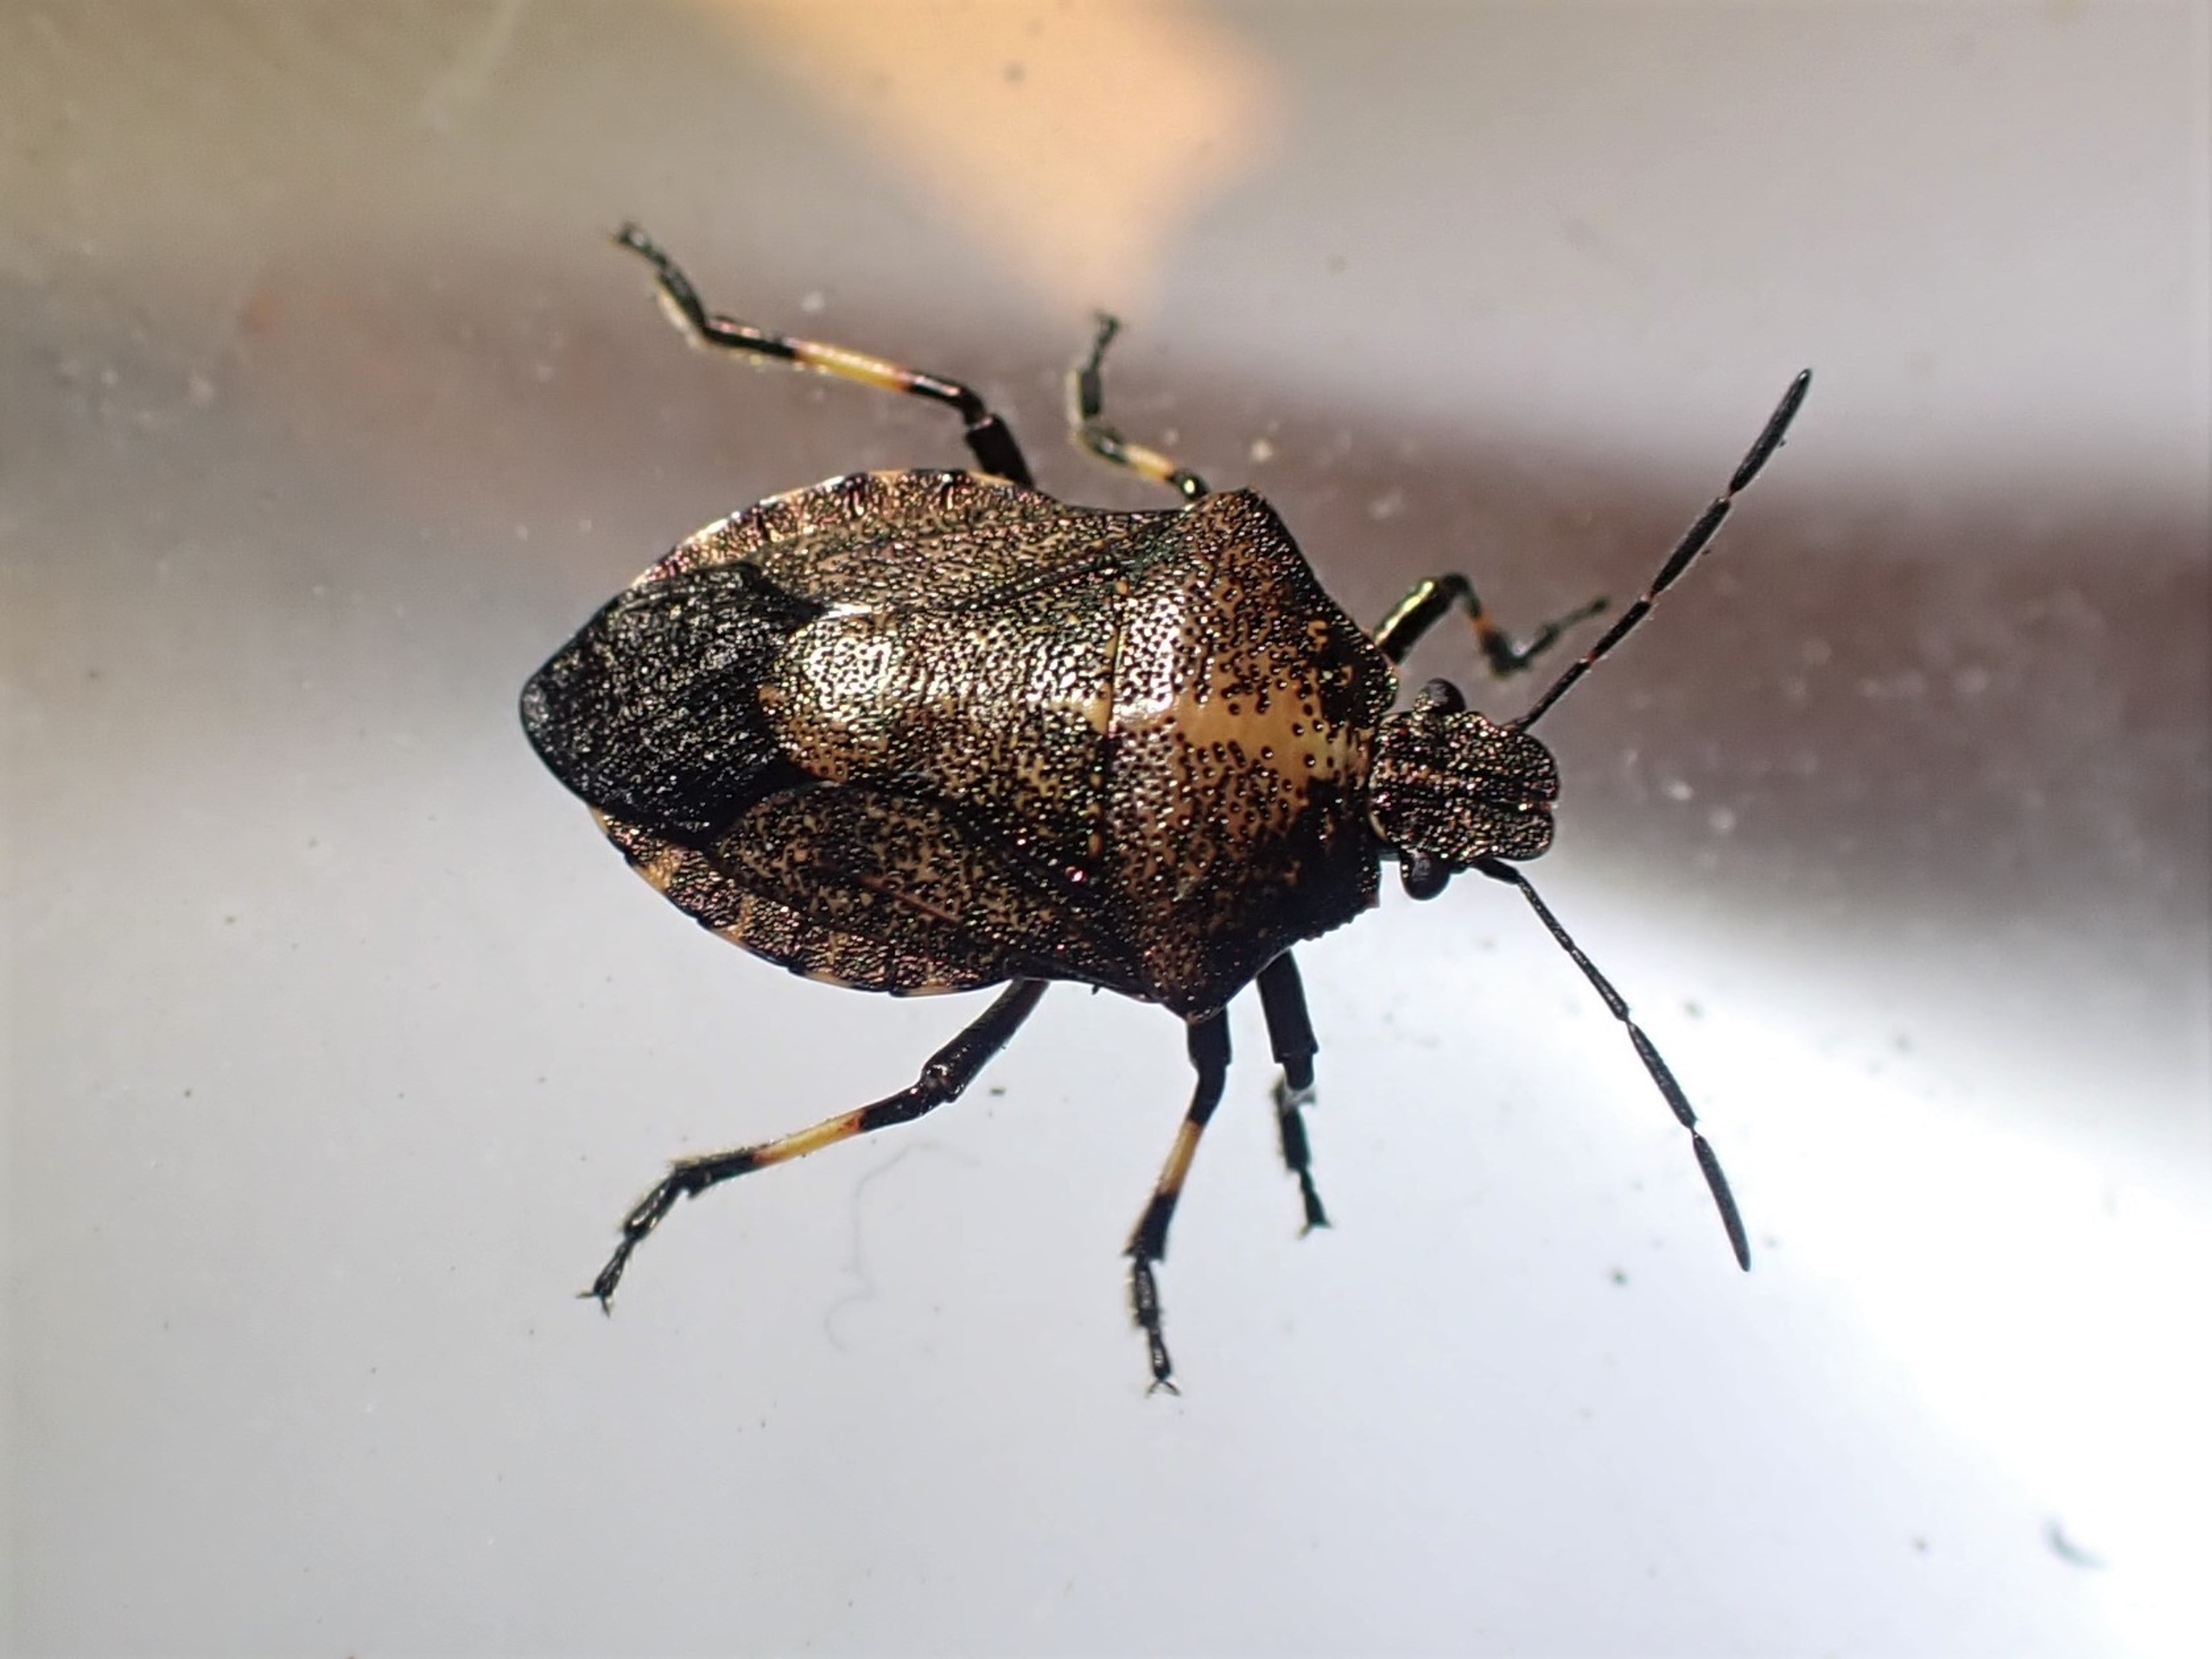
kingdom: Animalia
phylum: Arthropoda
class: Insecta
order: Hemiptera
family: Pentatomidae
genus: Rhacognathus
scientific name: Rhacognathus punctatus
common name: Mosebredtæge
